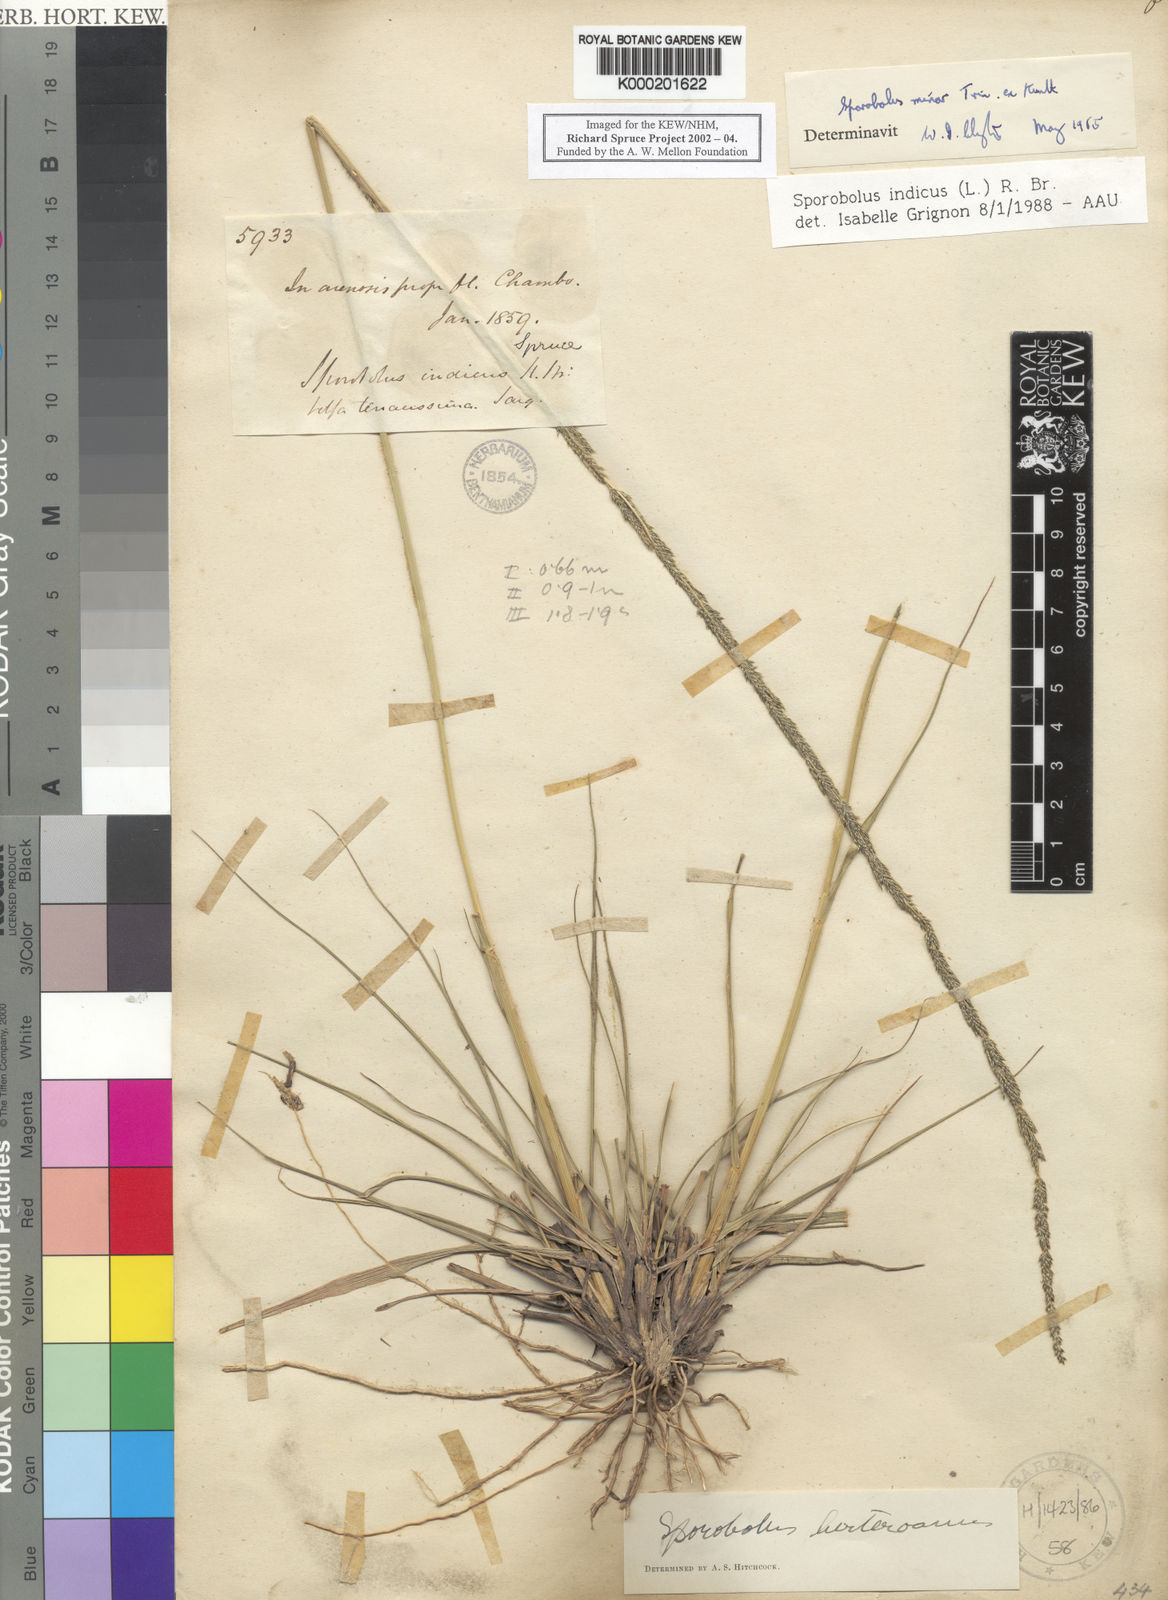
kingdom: Plantae
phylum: Tracheophyta
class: Liliopsida
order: Poales
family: Poaceae
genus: Sporobolus
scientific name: Sporobolus indicus
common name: Smut grass
